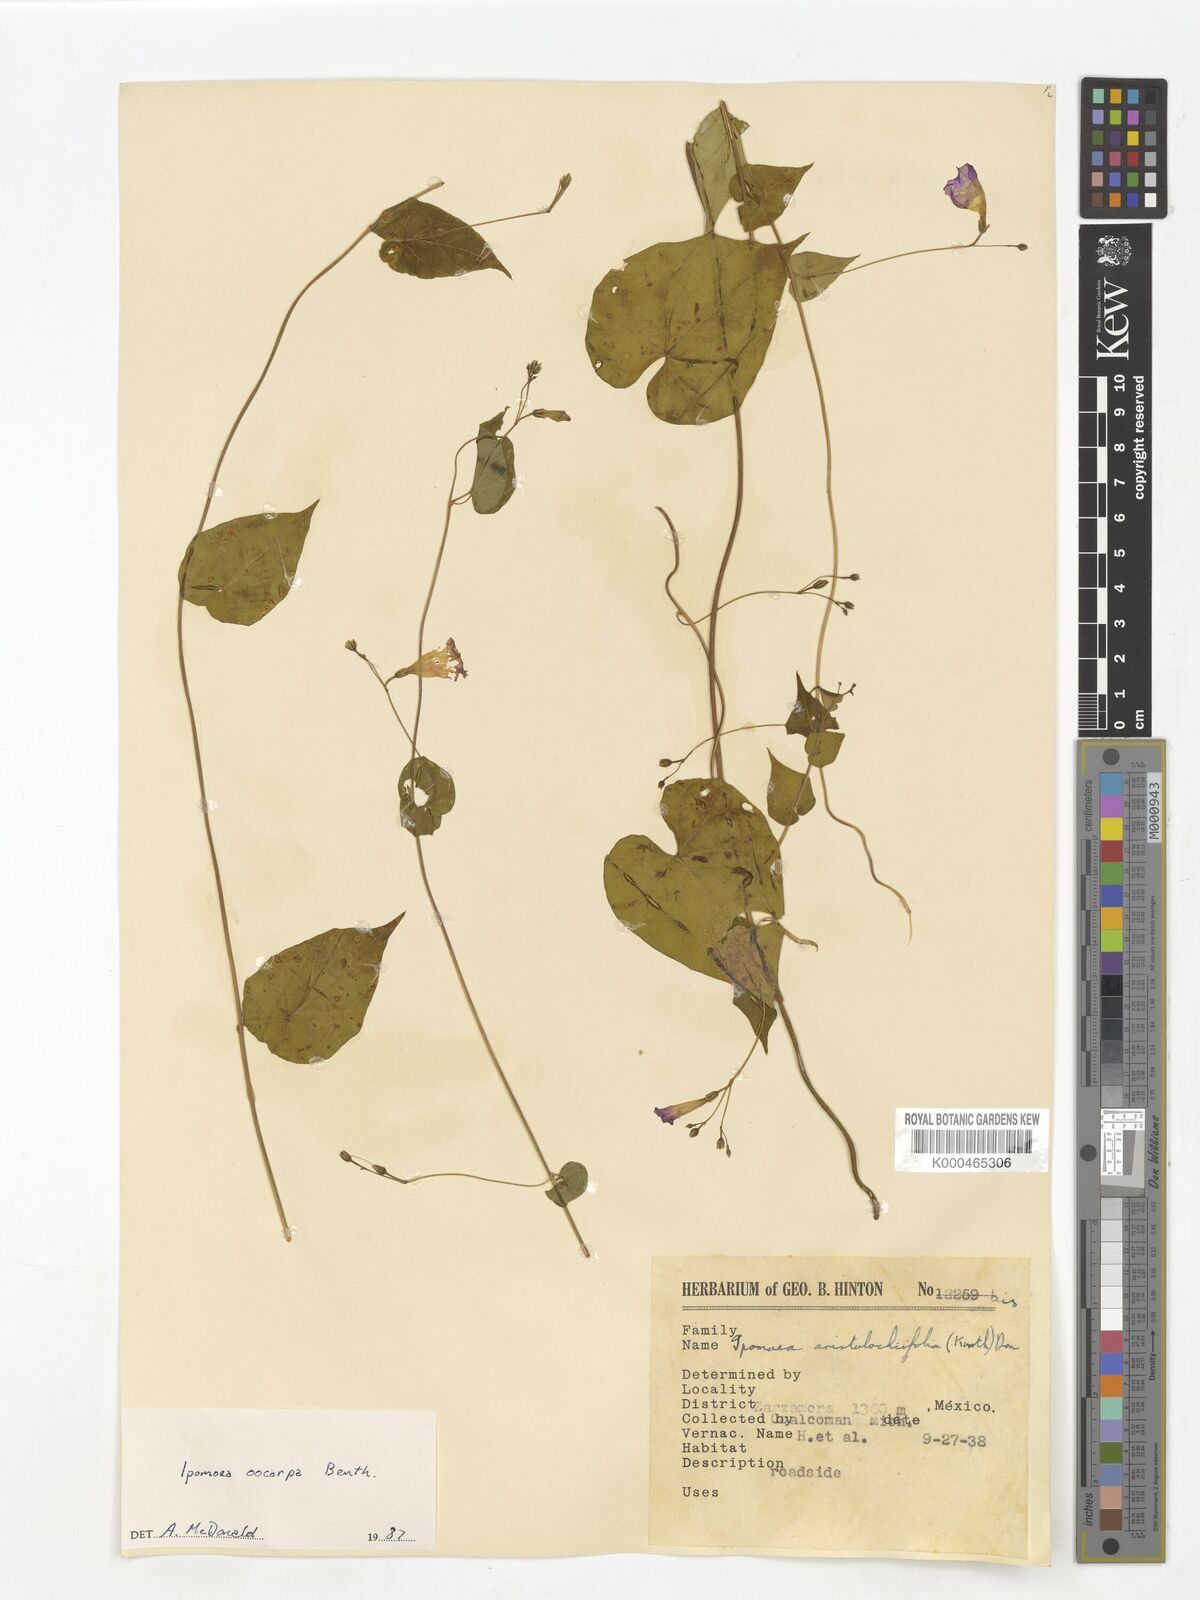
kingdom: Plantae
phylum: Tracheophyta
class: Magnoliopsida
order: Solanales
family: Convolvulaceae
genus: Ipomoea
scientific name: Ipomoea aristolochiifolia
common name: Aristolochia-leaved morning-glory
